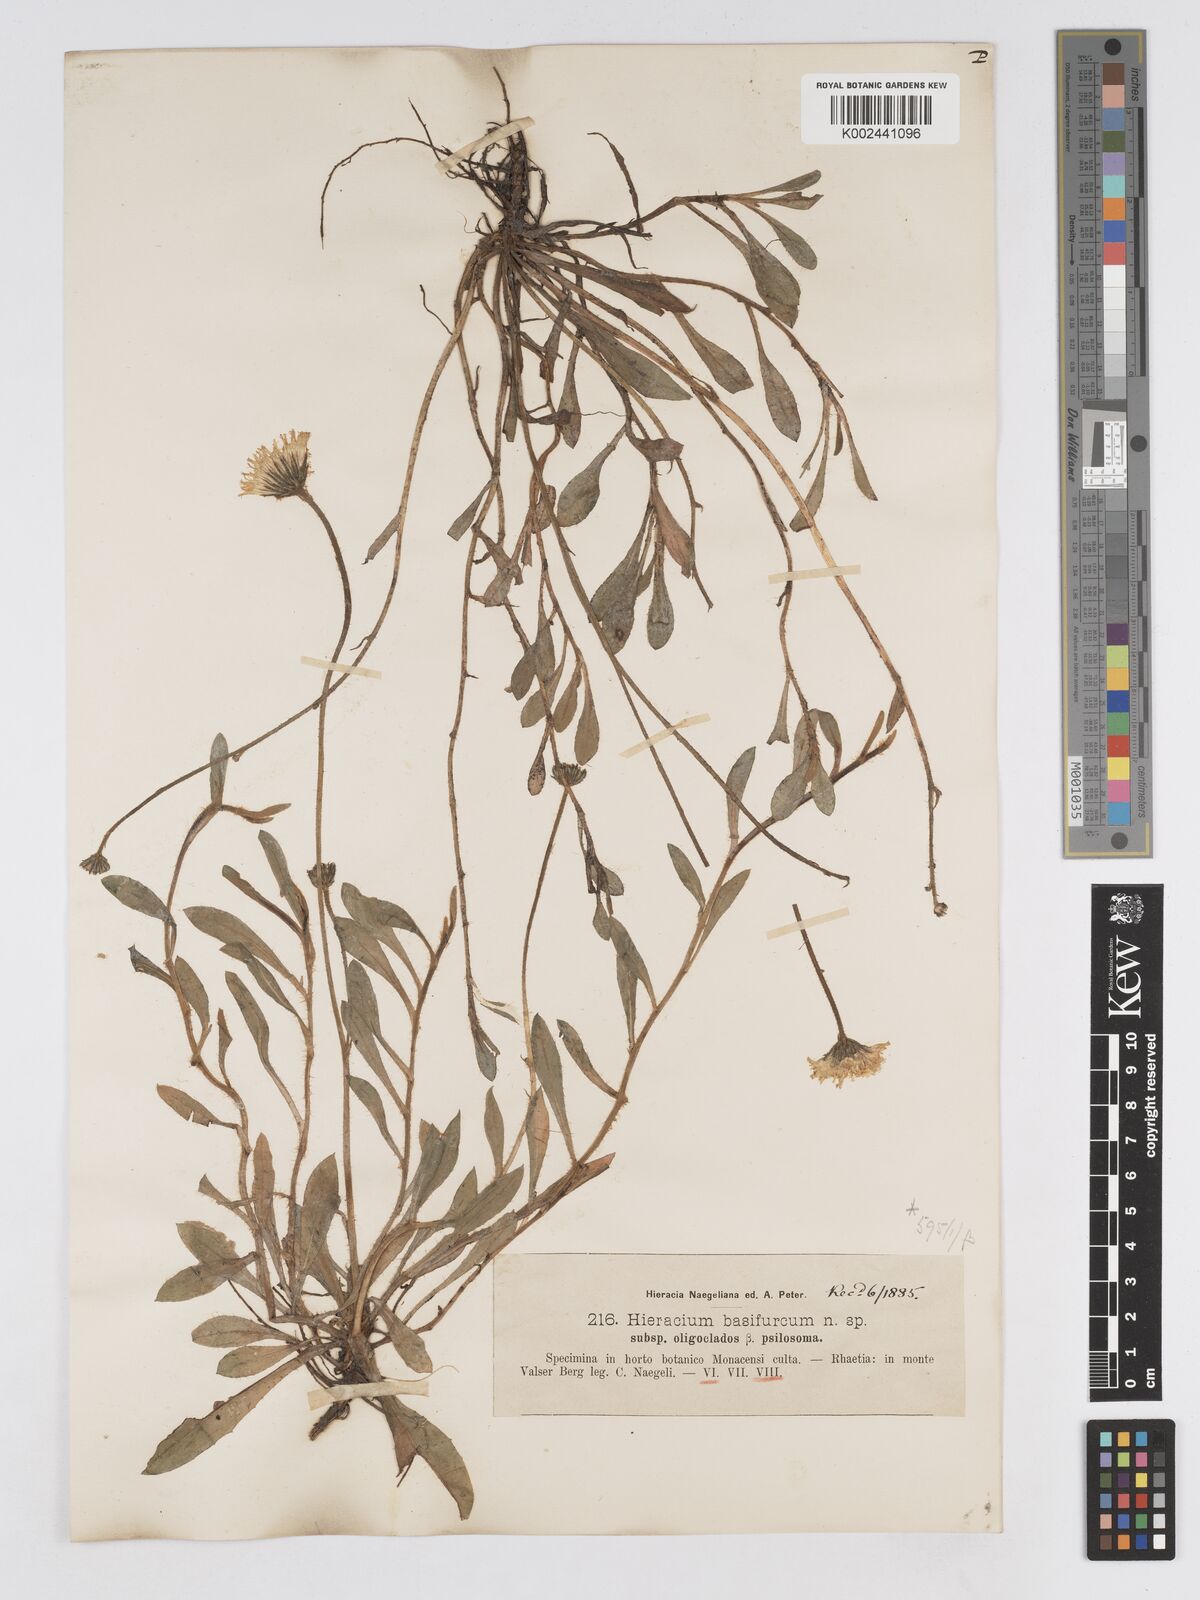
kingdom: Plantae
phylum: Tracheophyta
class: Magnoliopsida
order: Asterales
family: Asteraceae
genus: Pilosella
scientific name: Pilosella basifurca
